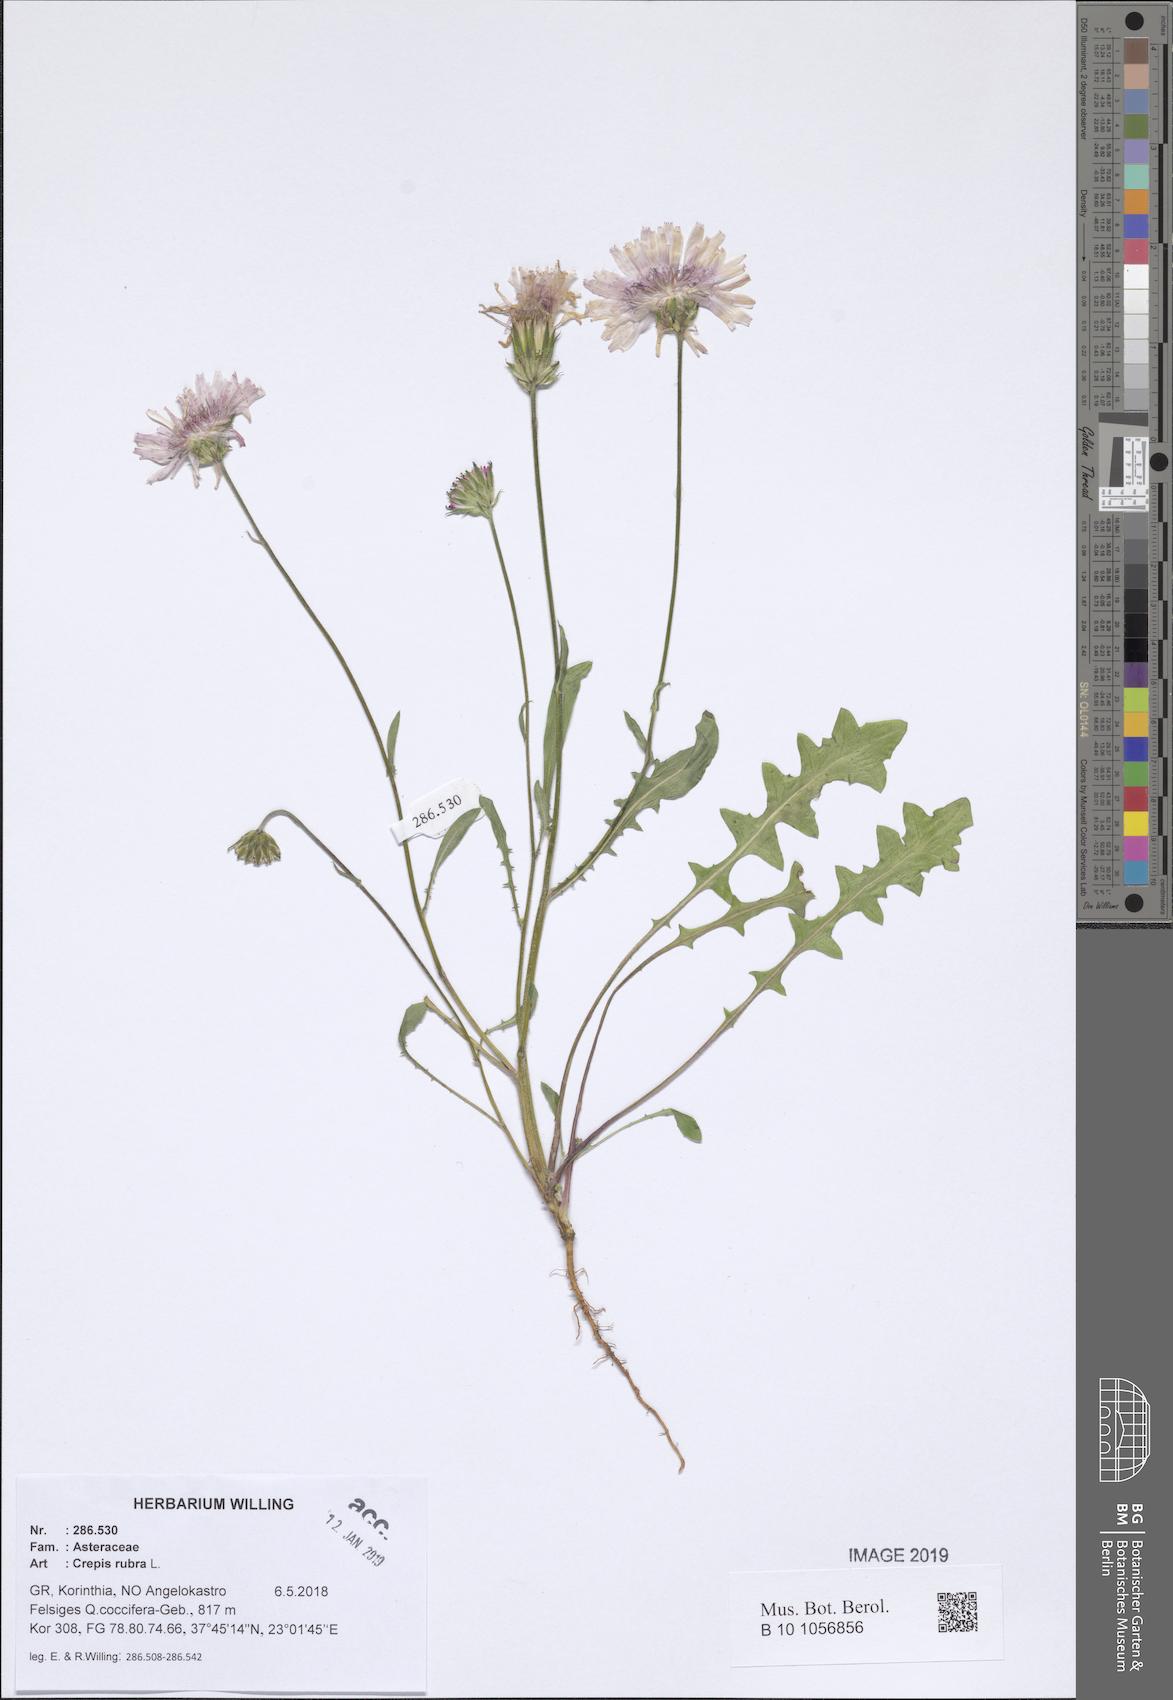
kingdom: Plantae
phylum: Tracheophyta
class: Magnoliopsida
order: Asterales
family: Asteraceae
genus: Crepis
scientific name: Crepis rubra
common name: Pink hawk's-beard
